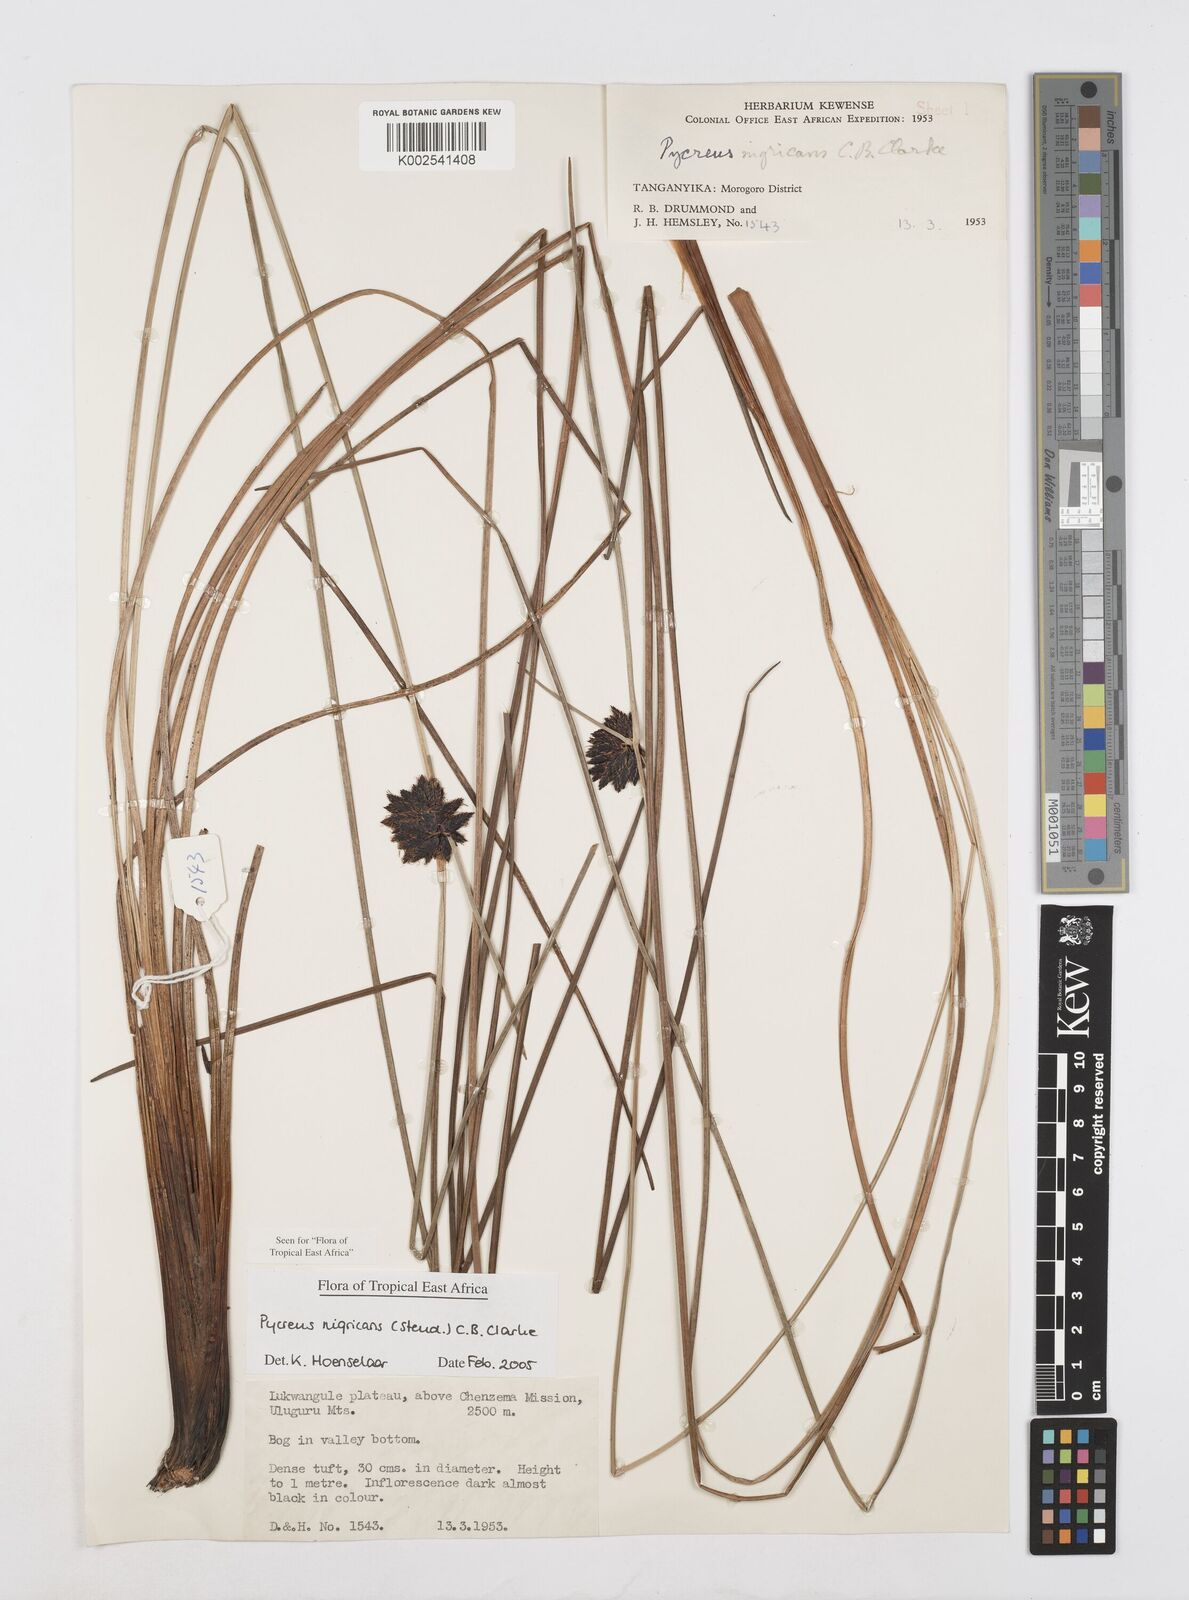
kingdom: Plantae
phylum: Tracheophyta
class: Liliopsida
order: Poales
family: Cyperaceae
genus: Cyperus
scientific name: Cyperus nigricans
